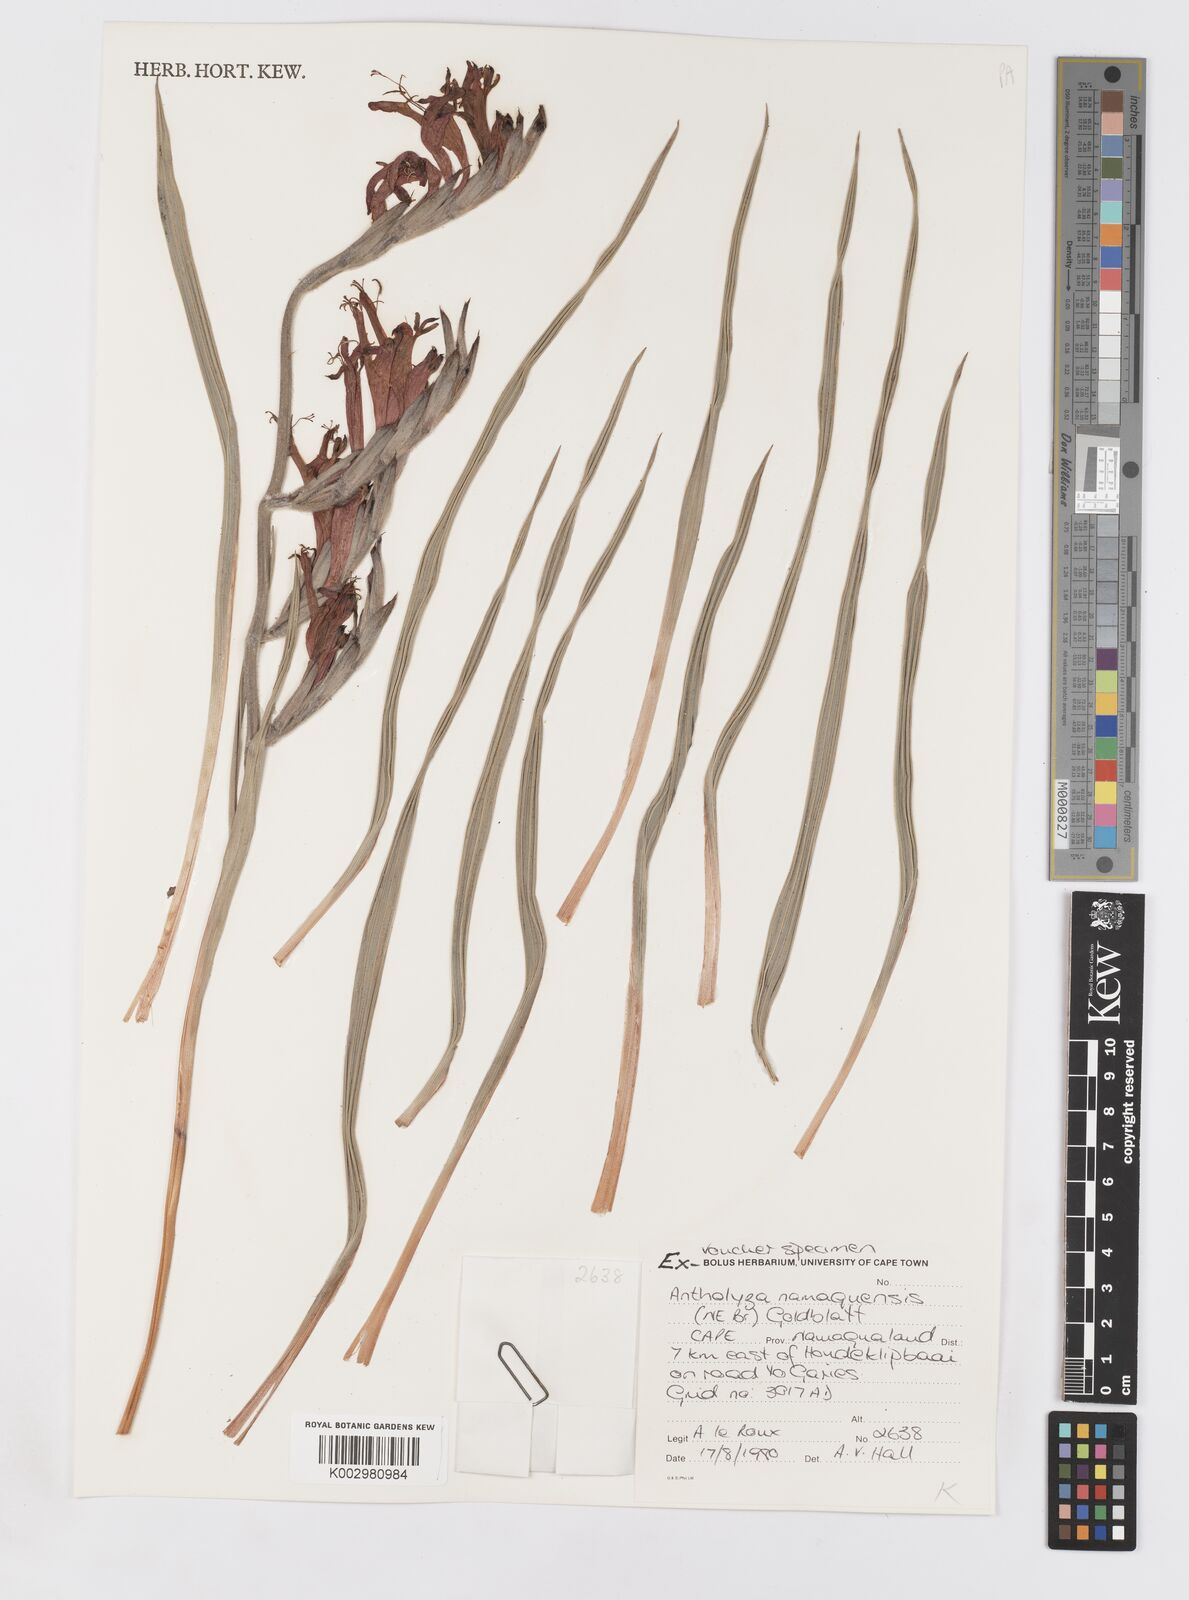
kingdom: Plantae
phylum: Tracheophyta
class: Liliopsida
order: Asparagales
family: Iridaceae
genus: Babiana
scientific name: Babiana
